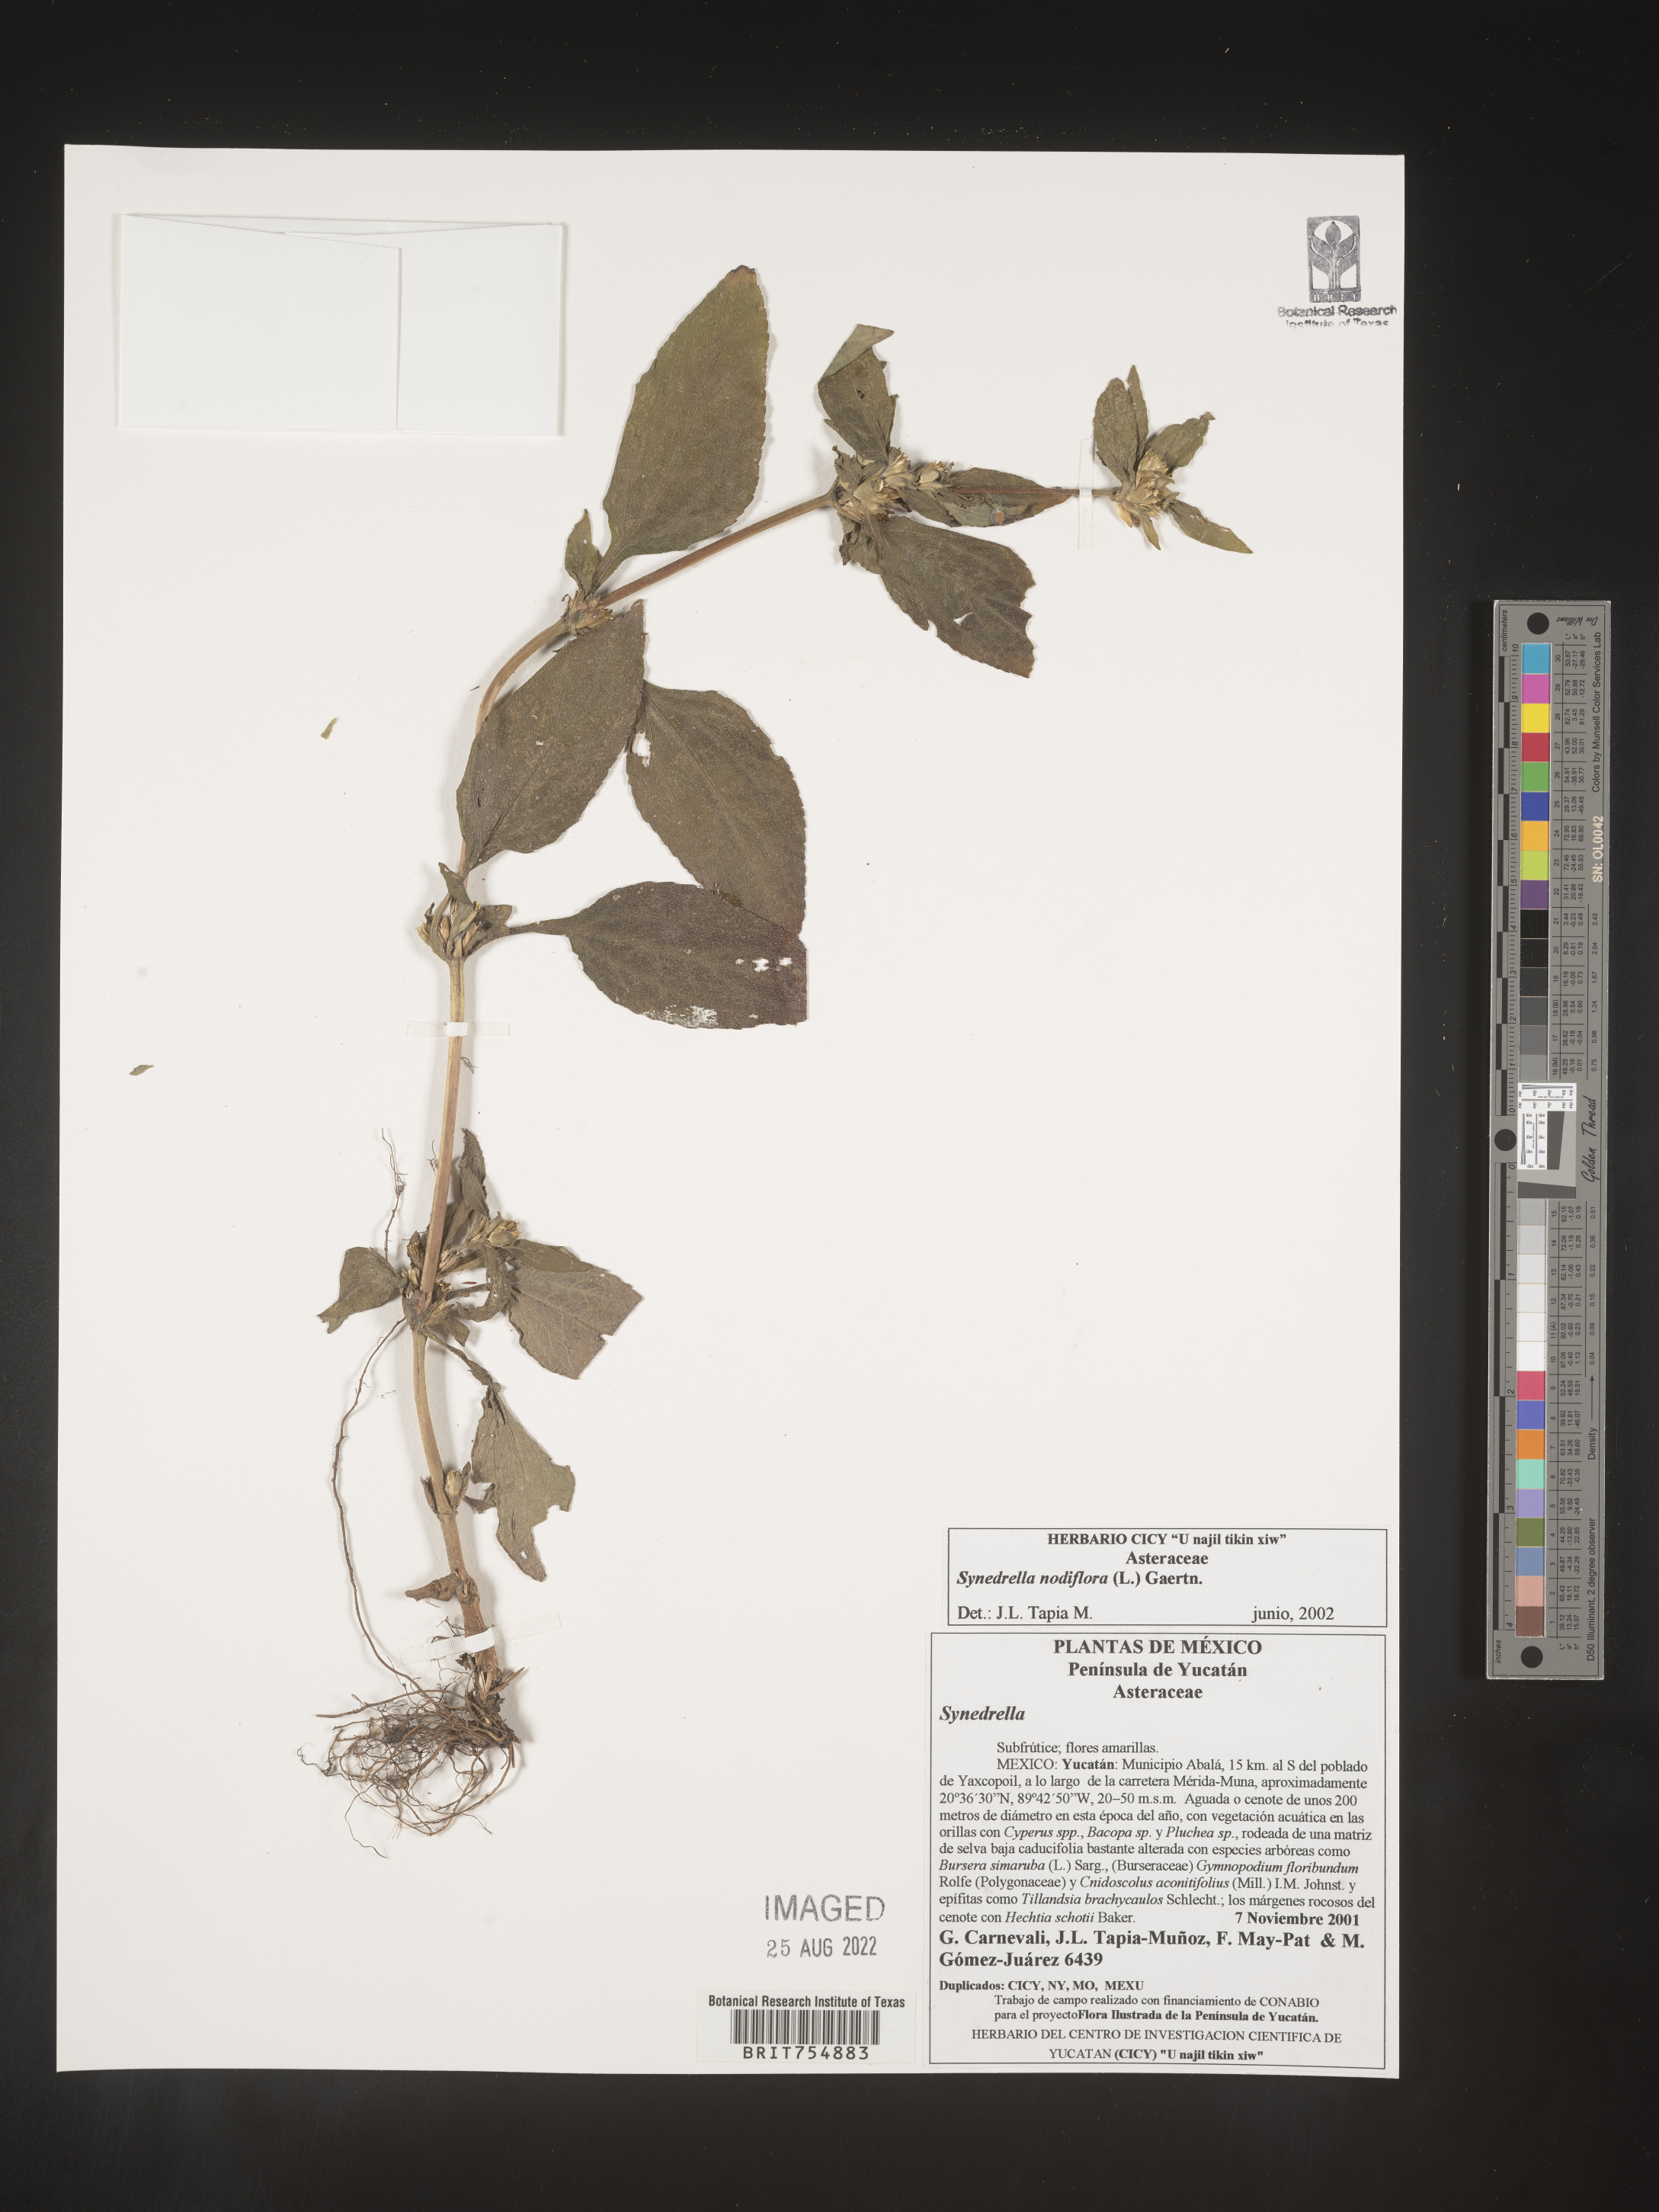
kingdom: Plantae
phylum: Tracheophyta
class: Magnoliopsida
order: Asterales
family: Asteraceae
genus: Synedrella
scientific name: Synedrella
